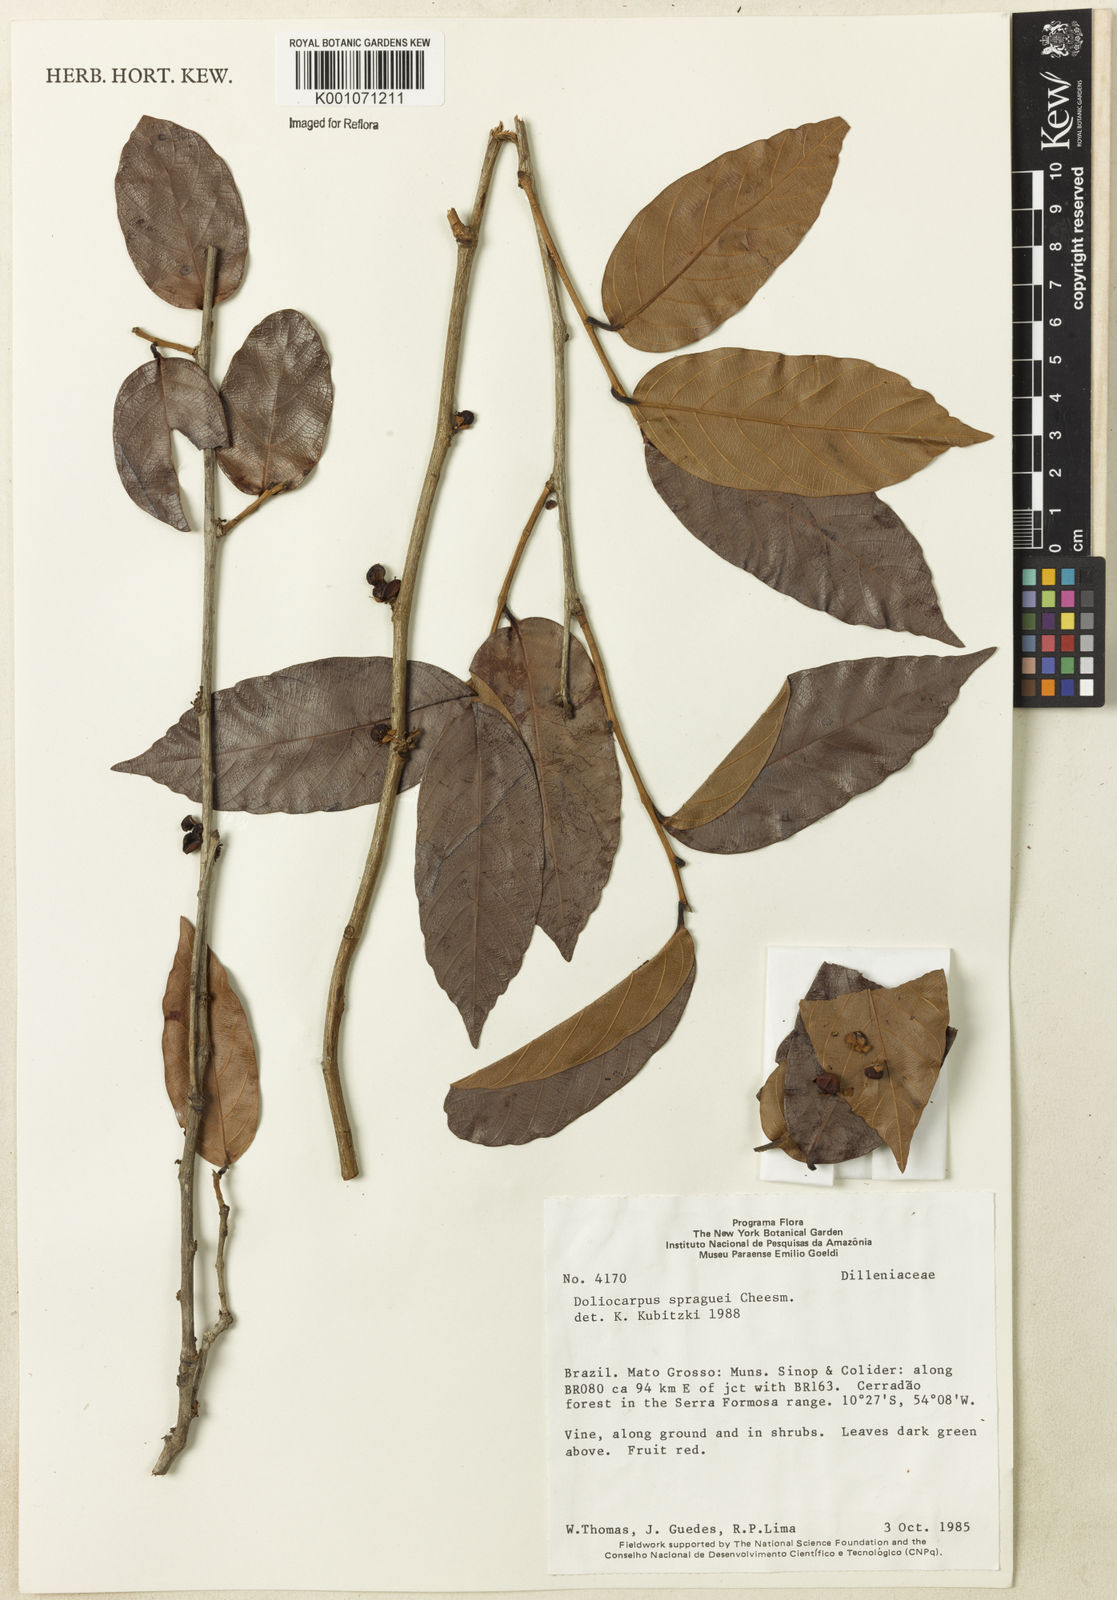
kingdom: Plantae
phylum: Tracheophyta
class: Magnoliopsida
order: Dilleniales
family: Dilleniaceae
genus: Doliocarpus
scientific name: Doliocarpus spraguei
